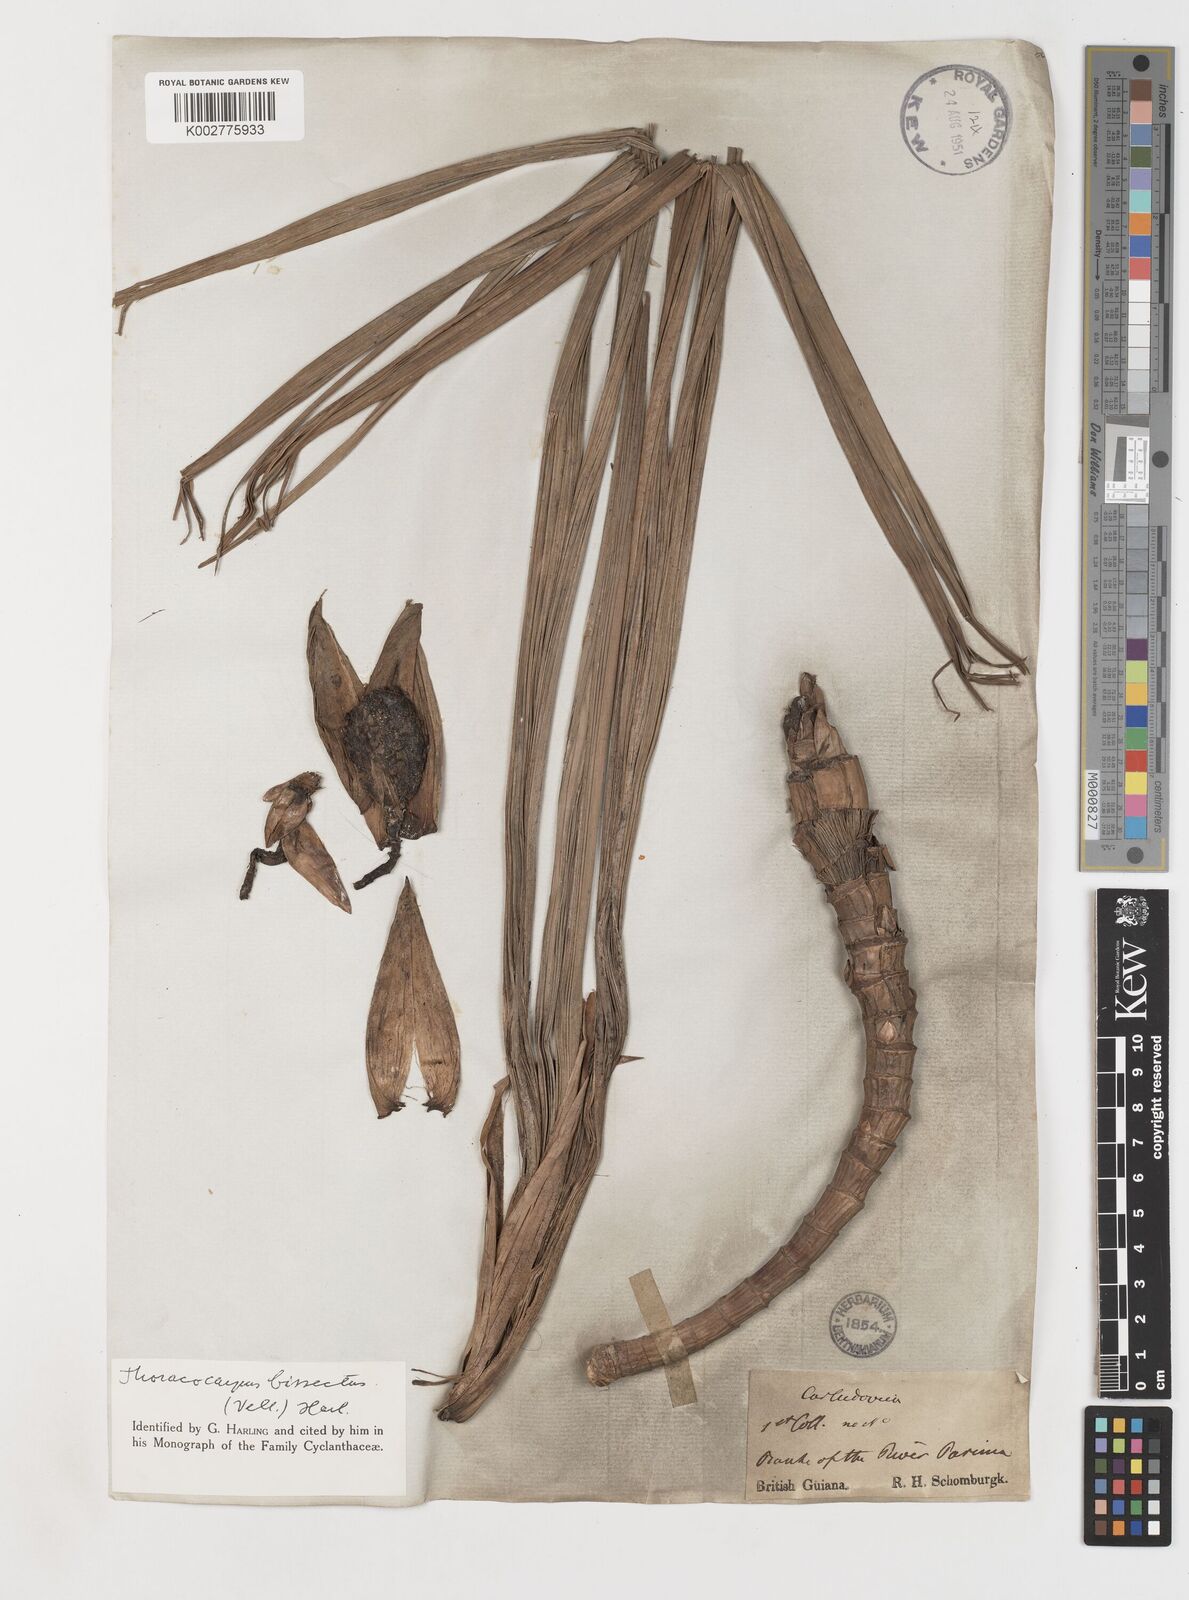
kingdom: Plantae
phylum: Tracheophyta
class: Liliopsida
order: Pandanales
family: Cyclanthaceae
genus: Thoracocarpus
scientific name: Thoracocarpus bissectus
